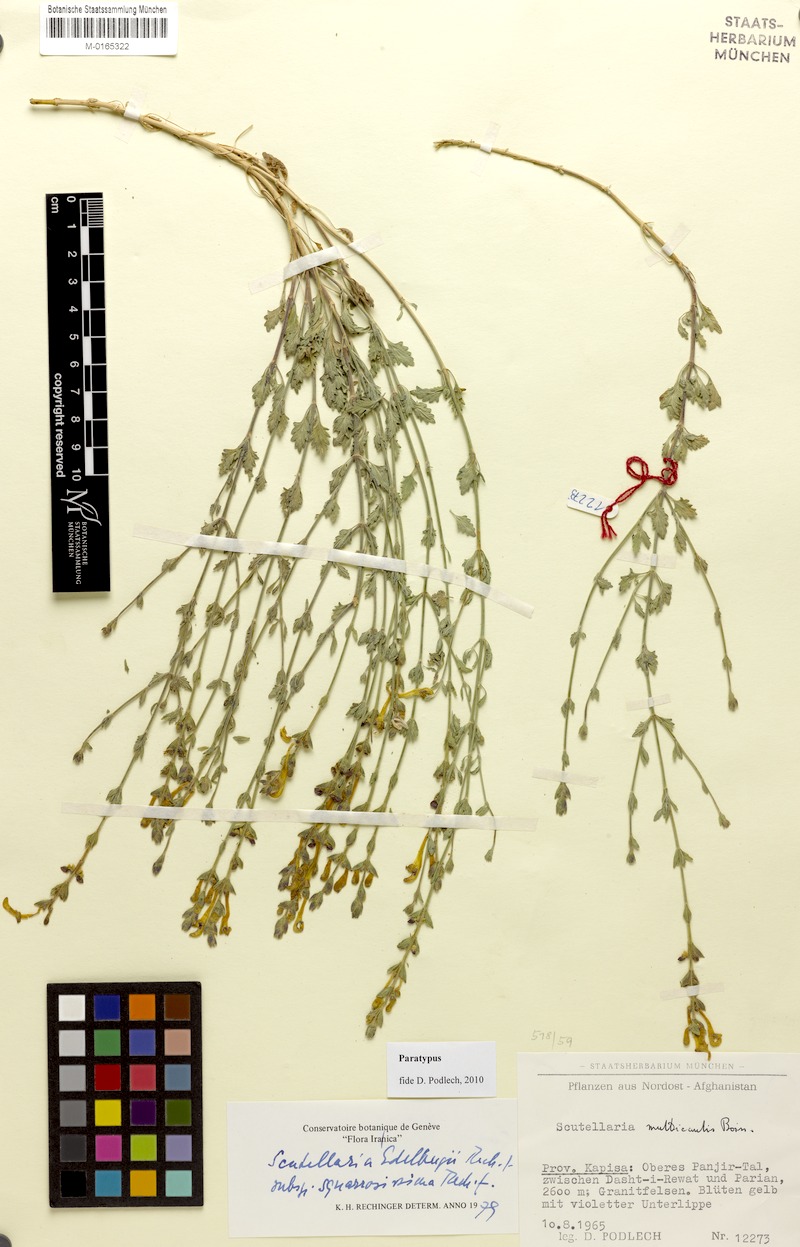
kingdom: Plantae
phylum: Tracheophyta
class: Magnoliopsida
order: Lamiales
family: Lamiaceae
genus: Scutellaria
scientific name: Scutellaria edelbergii
